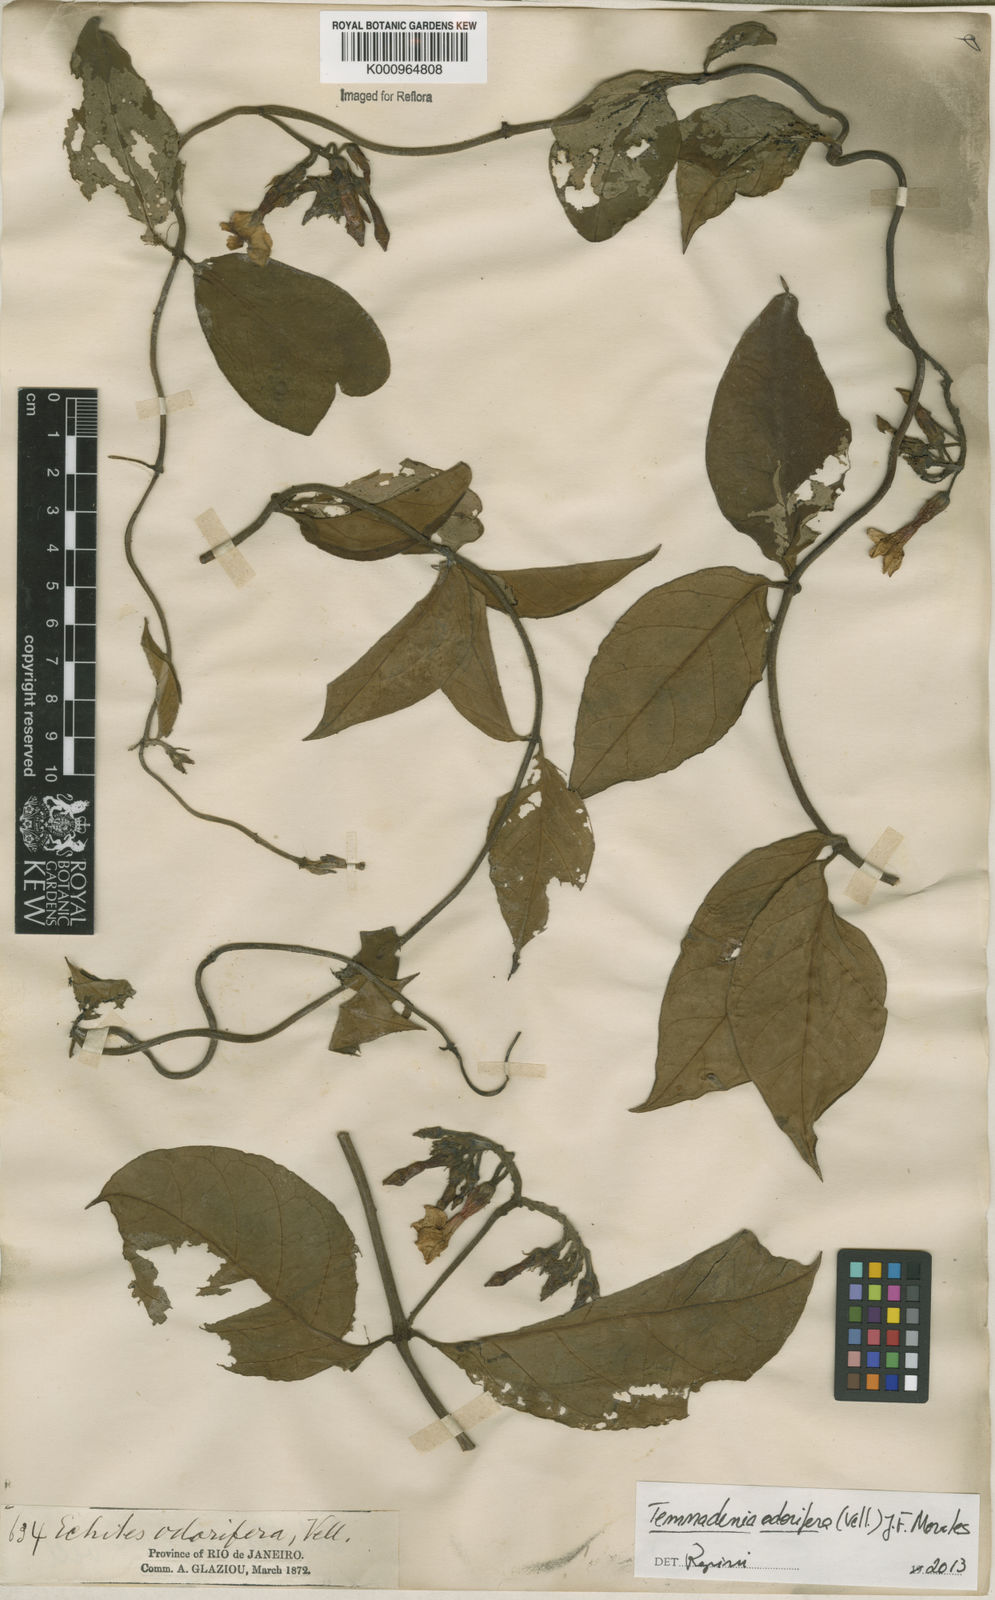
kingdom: Plantae
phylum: Tracheophyta
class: Magnoliopsida
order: Gentianales
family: Apocynaceae
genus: Temnadenia
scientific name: Temnadenia odorifera
